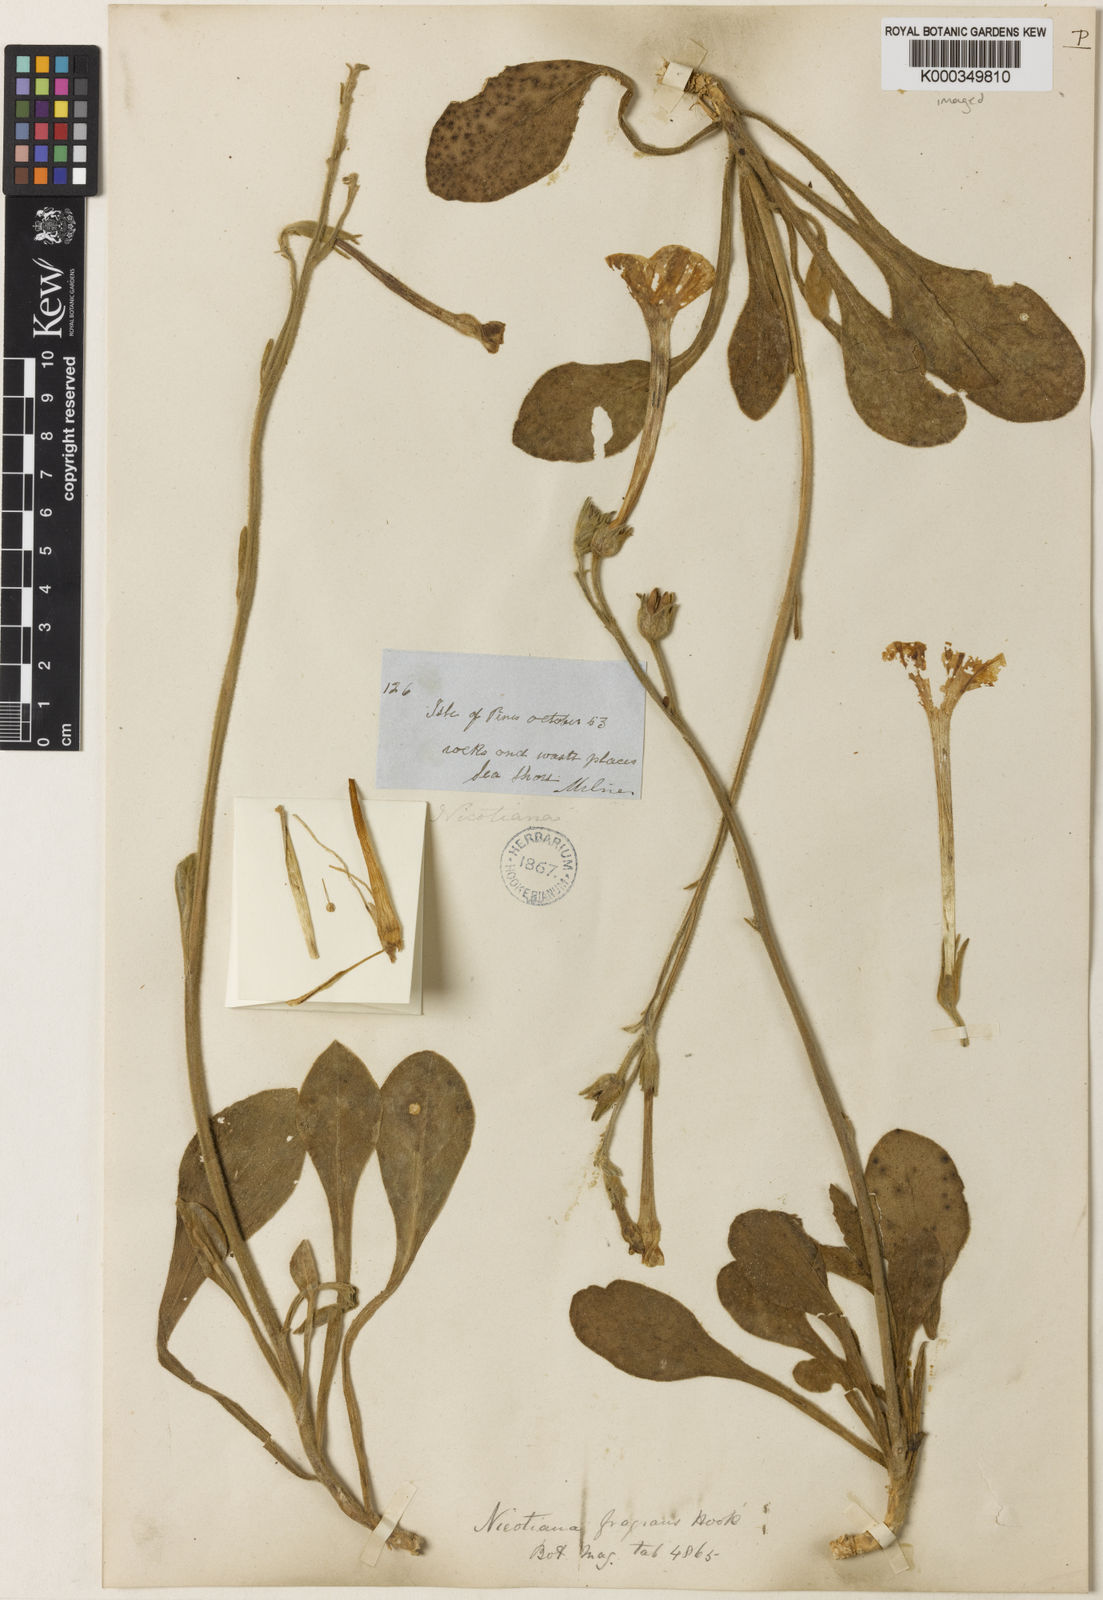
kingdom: Plantae
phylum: Tracheophyta
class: Magnoliopsida
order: Solanales
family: Solanaceae
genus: Nicotiana
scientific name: Nicotiana fragrans
